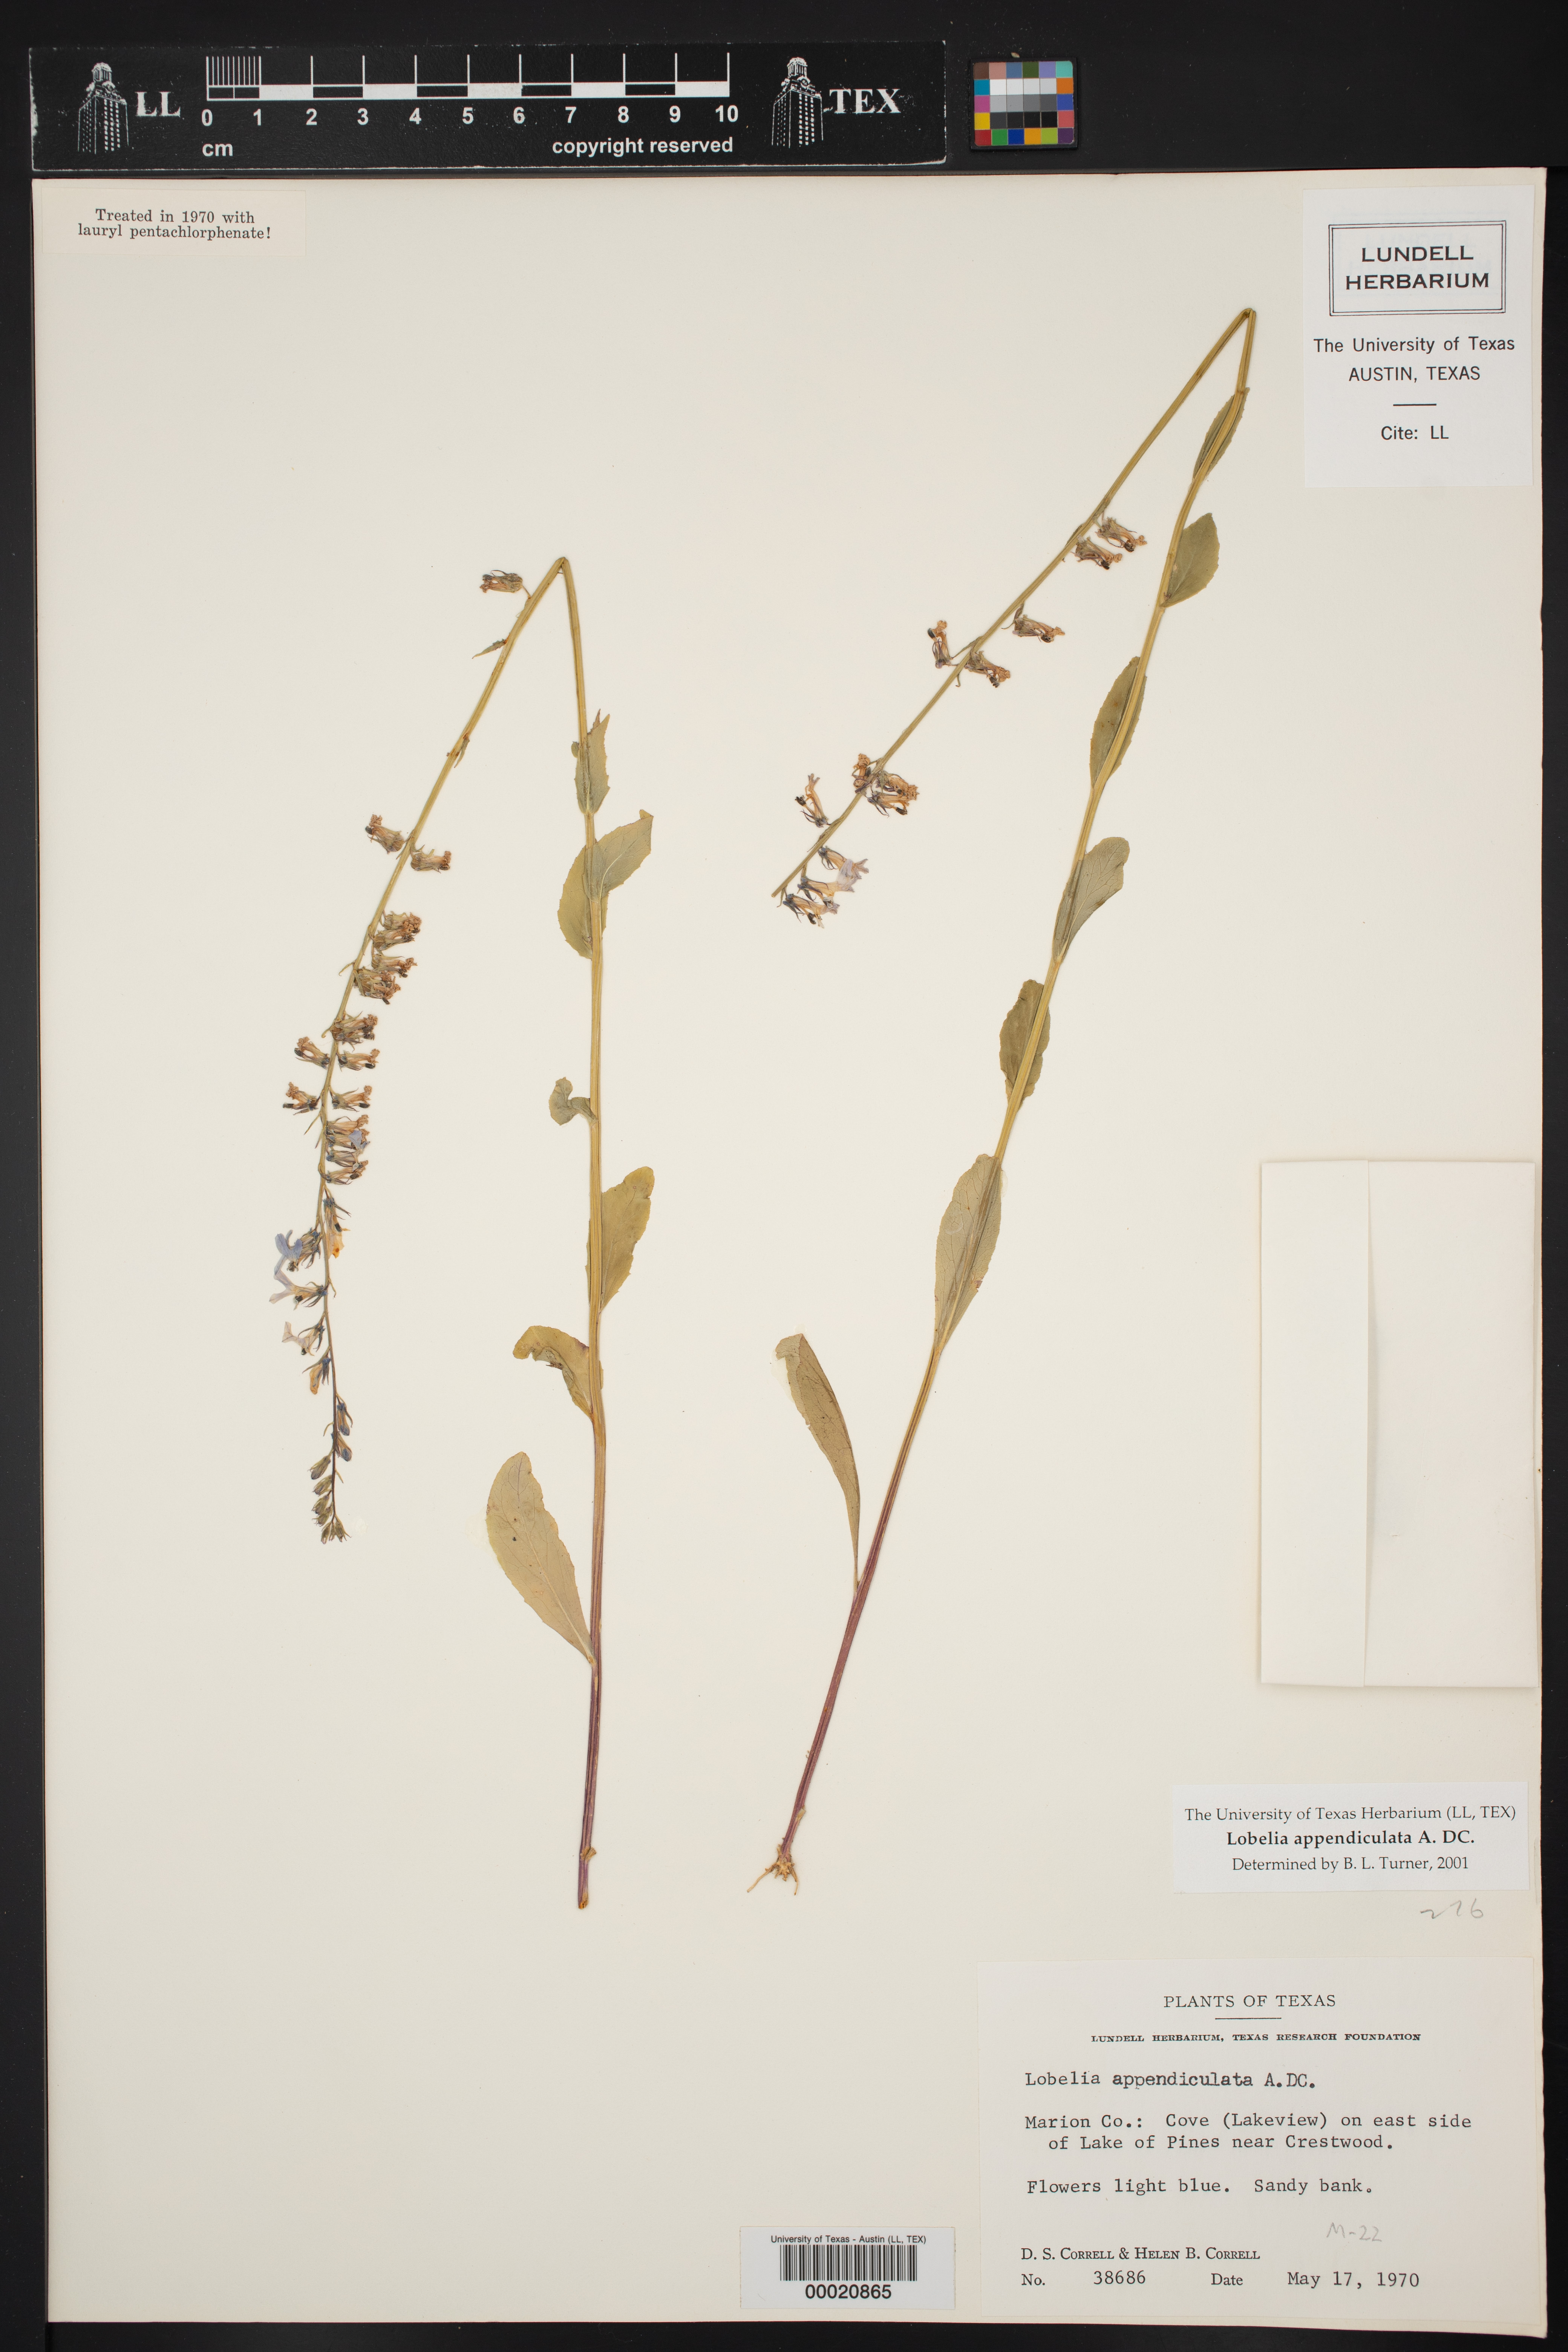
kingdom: Plantae
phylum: Tracheophyta
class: Magnoliopsida
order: Asterales
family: Campanulaceae
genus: Lobelia
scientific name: Lobelia appendiculata
